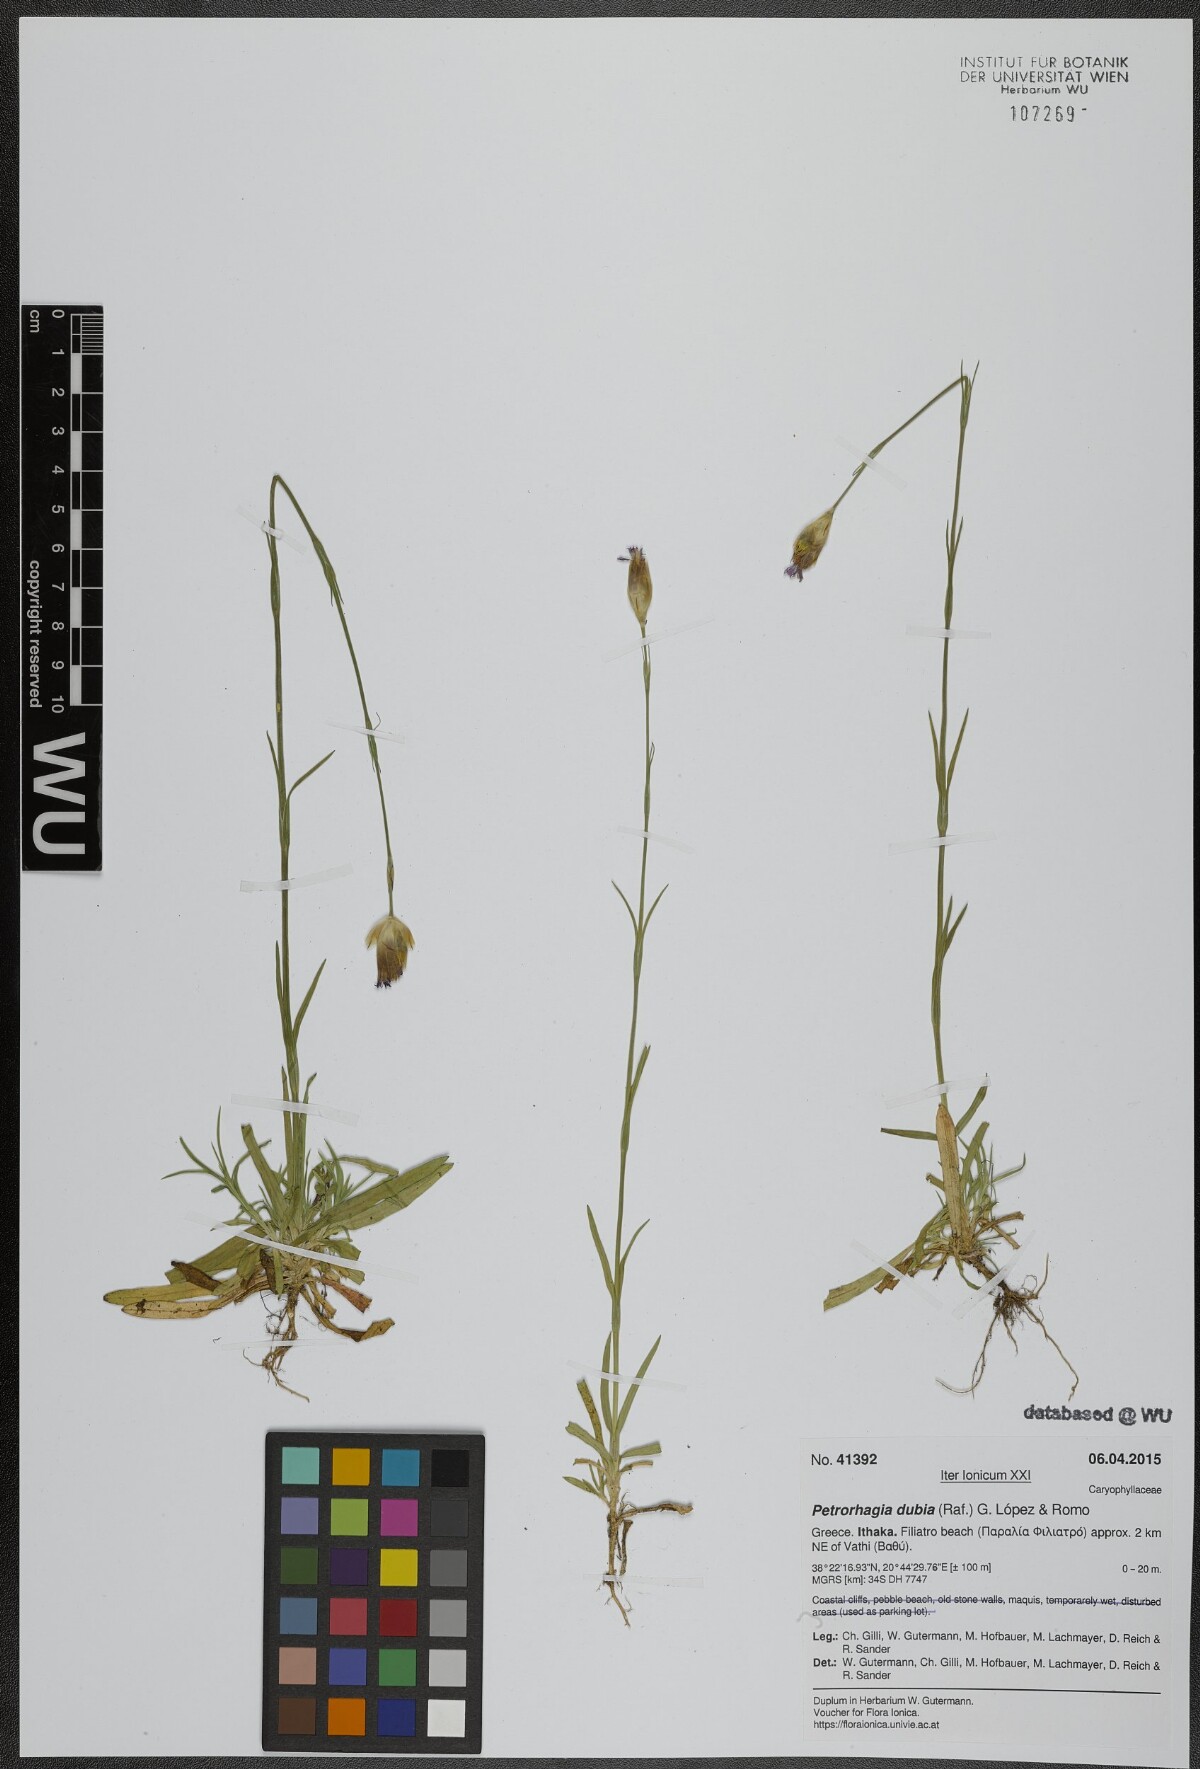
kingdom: Plantae
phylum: Tracheophyta
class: Magnoliopsida
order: Caryophyllales
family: Caryophyllaceae
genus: Petrorhagia
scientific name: Petrorhagia dubia
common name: Hairypink
